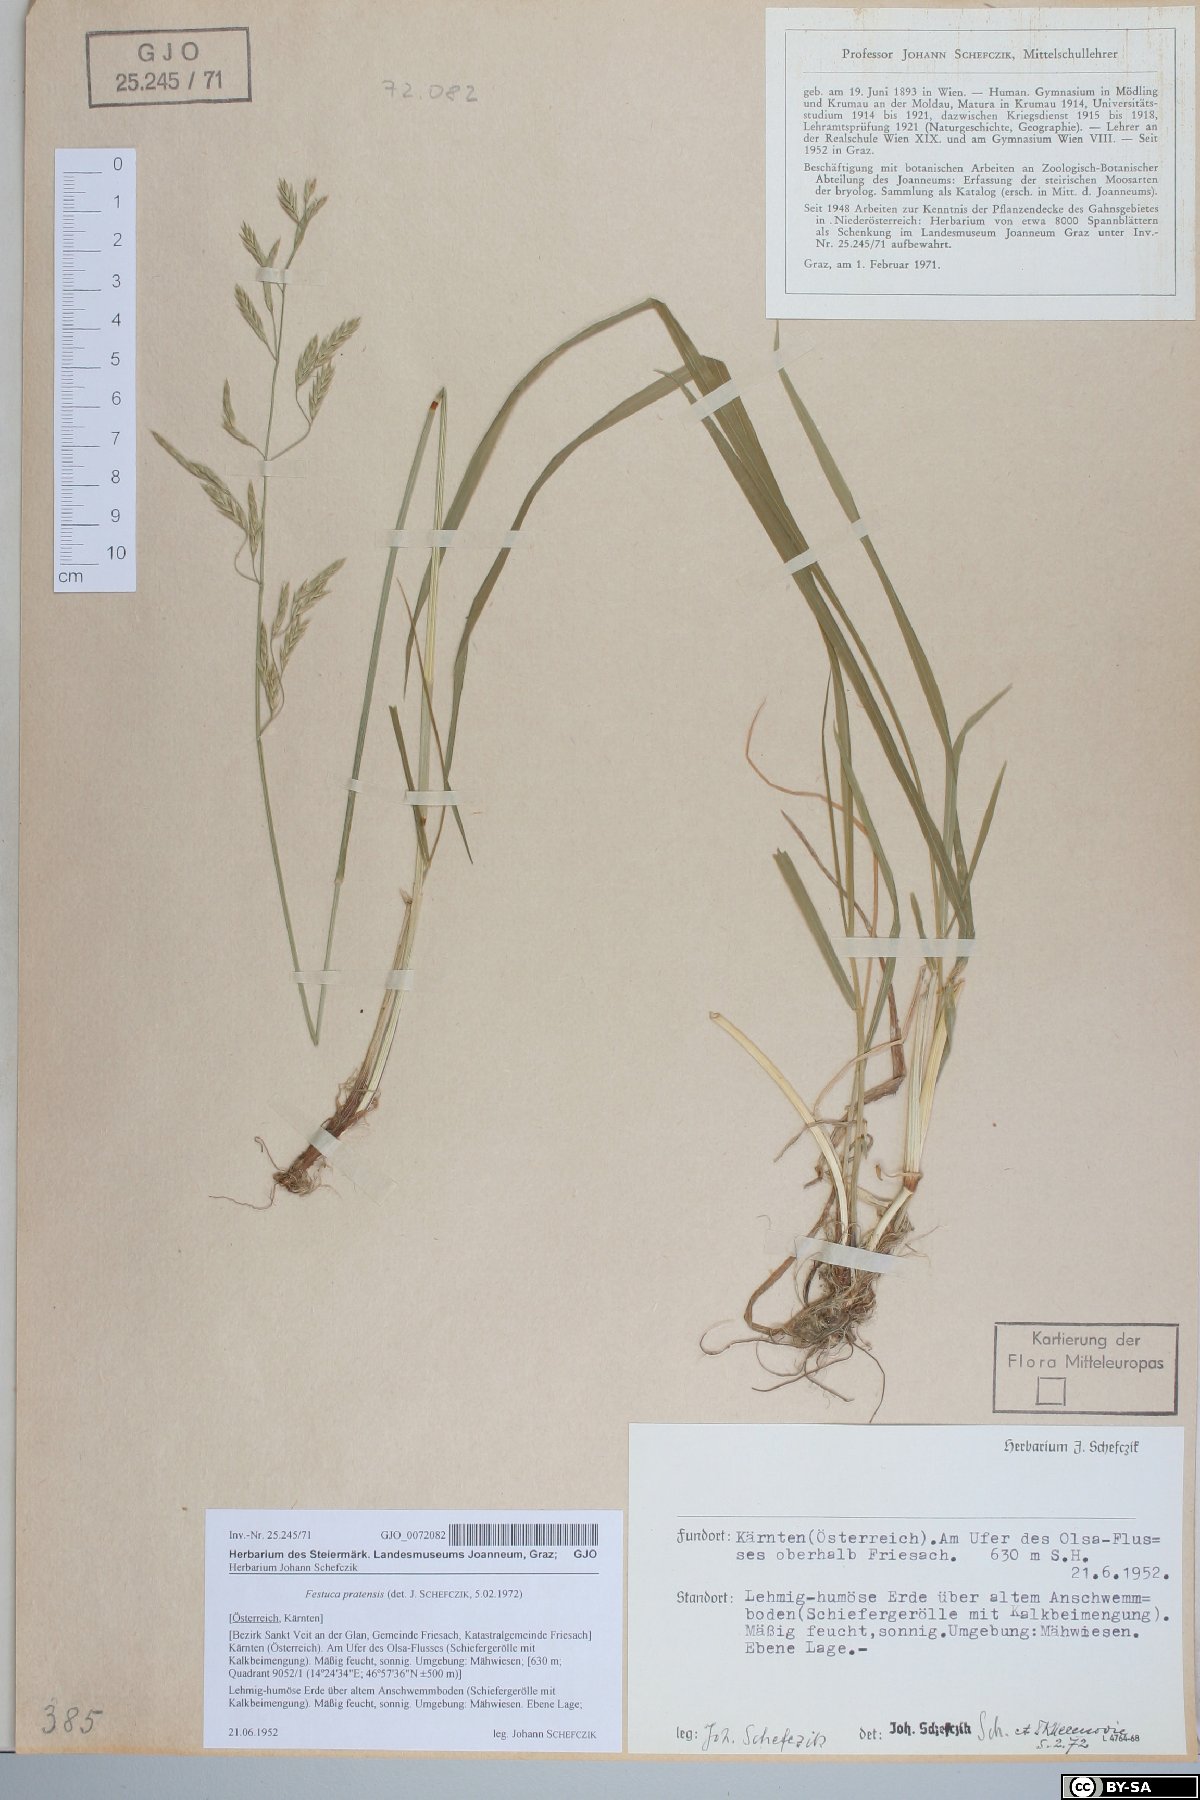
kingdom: Plantae
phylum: Tracheophyta
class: Liliopsida
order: Poales
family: Poaceae
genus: Lolium
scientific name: Lolium pratense
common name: Dover grass
